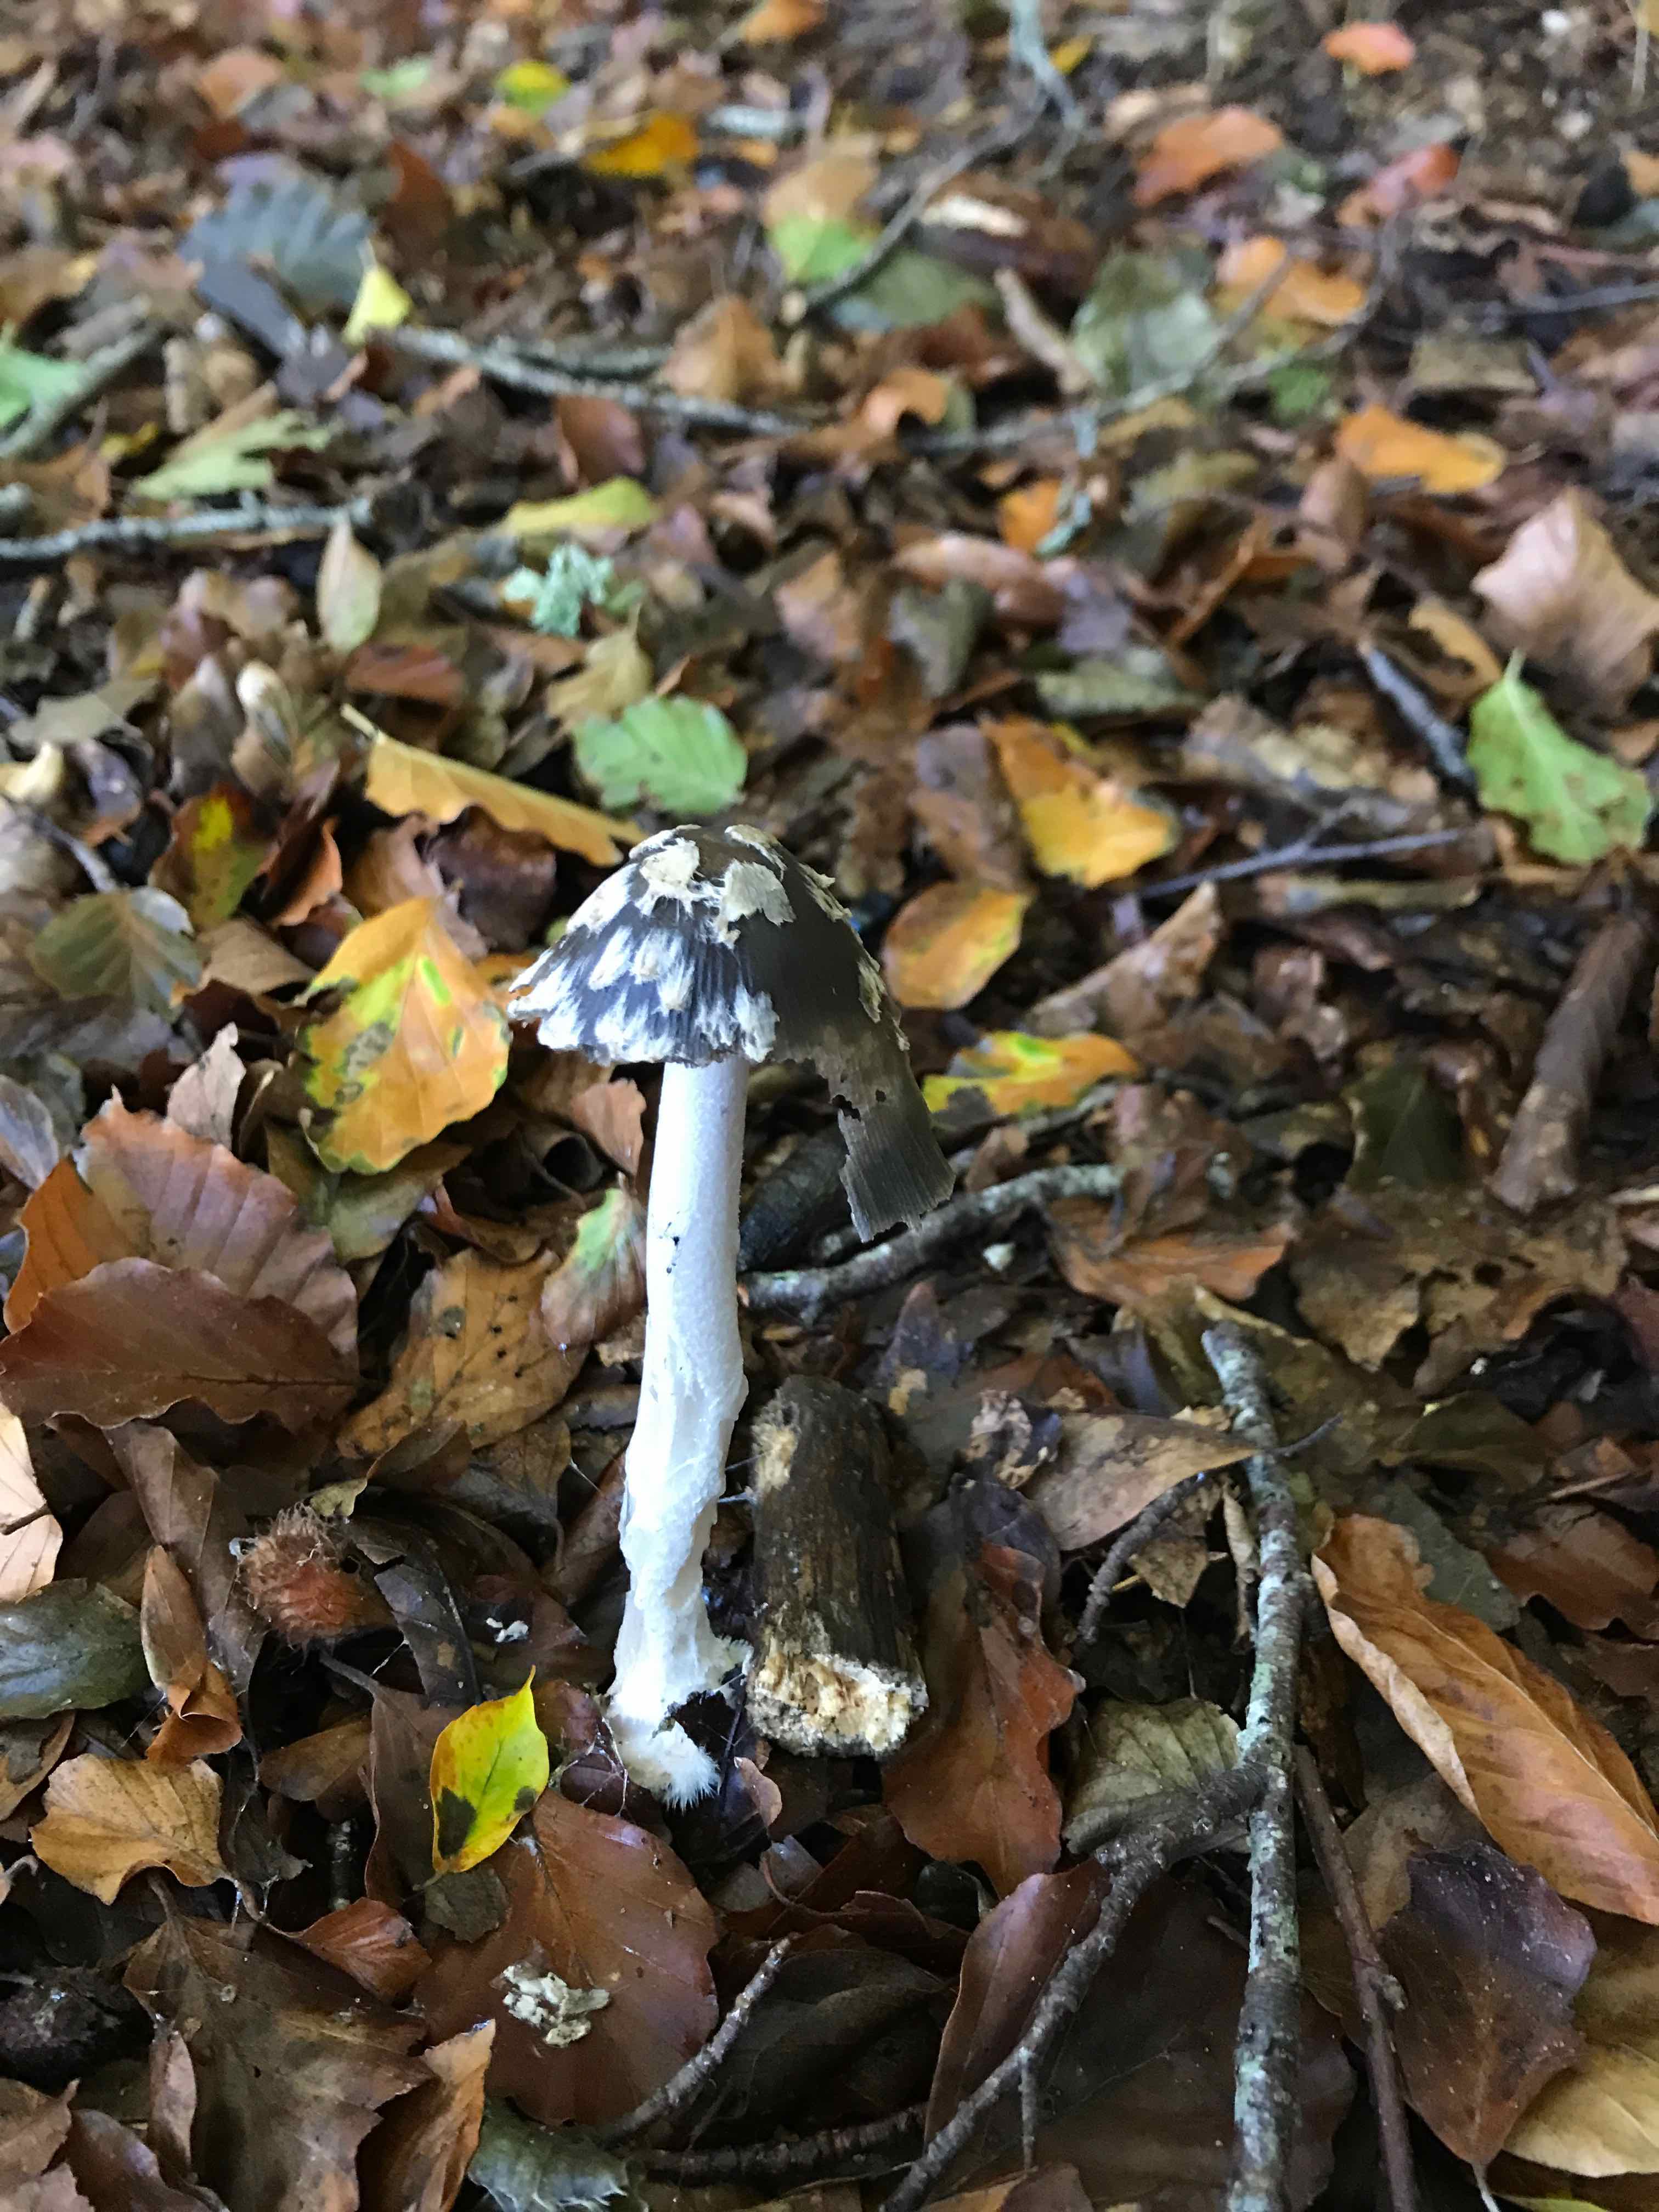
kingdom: Fungi
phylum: Basidiomycota
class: Agaricomycetes
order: Agaricales
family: Psathyrellaceae
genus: Coprinopsis
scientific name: Coprinopsis picacea
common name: skade-blækhat
